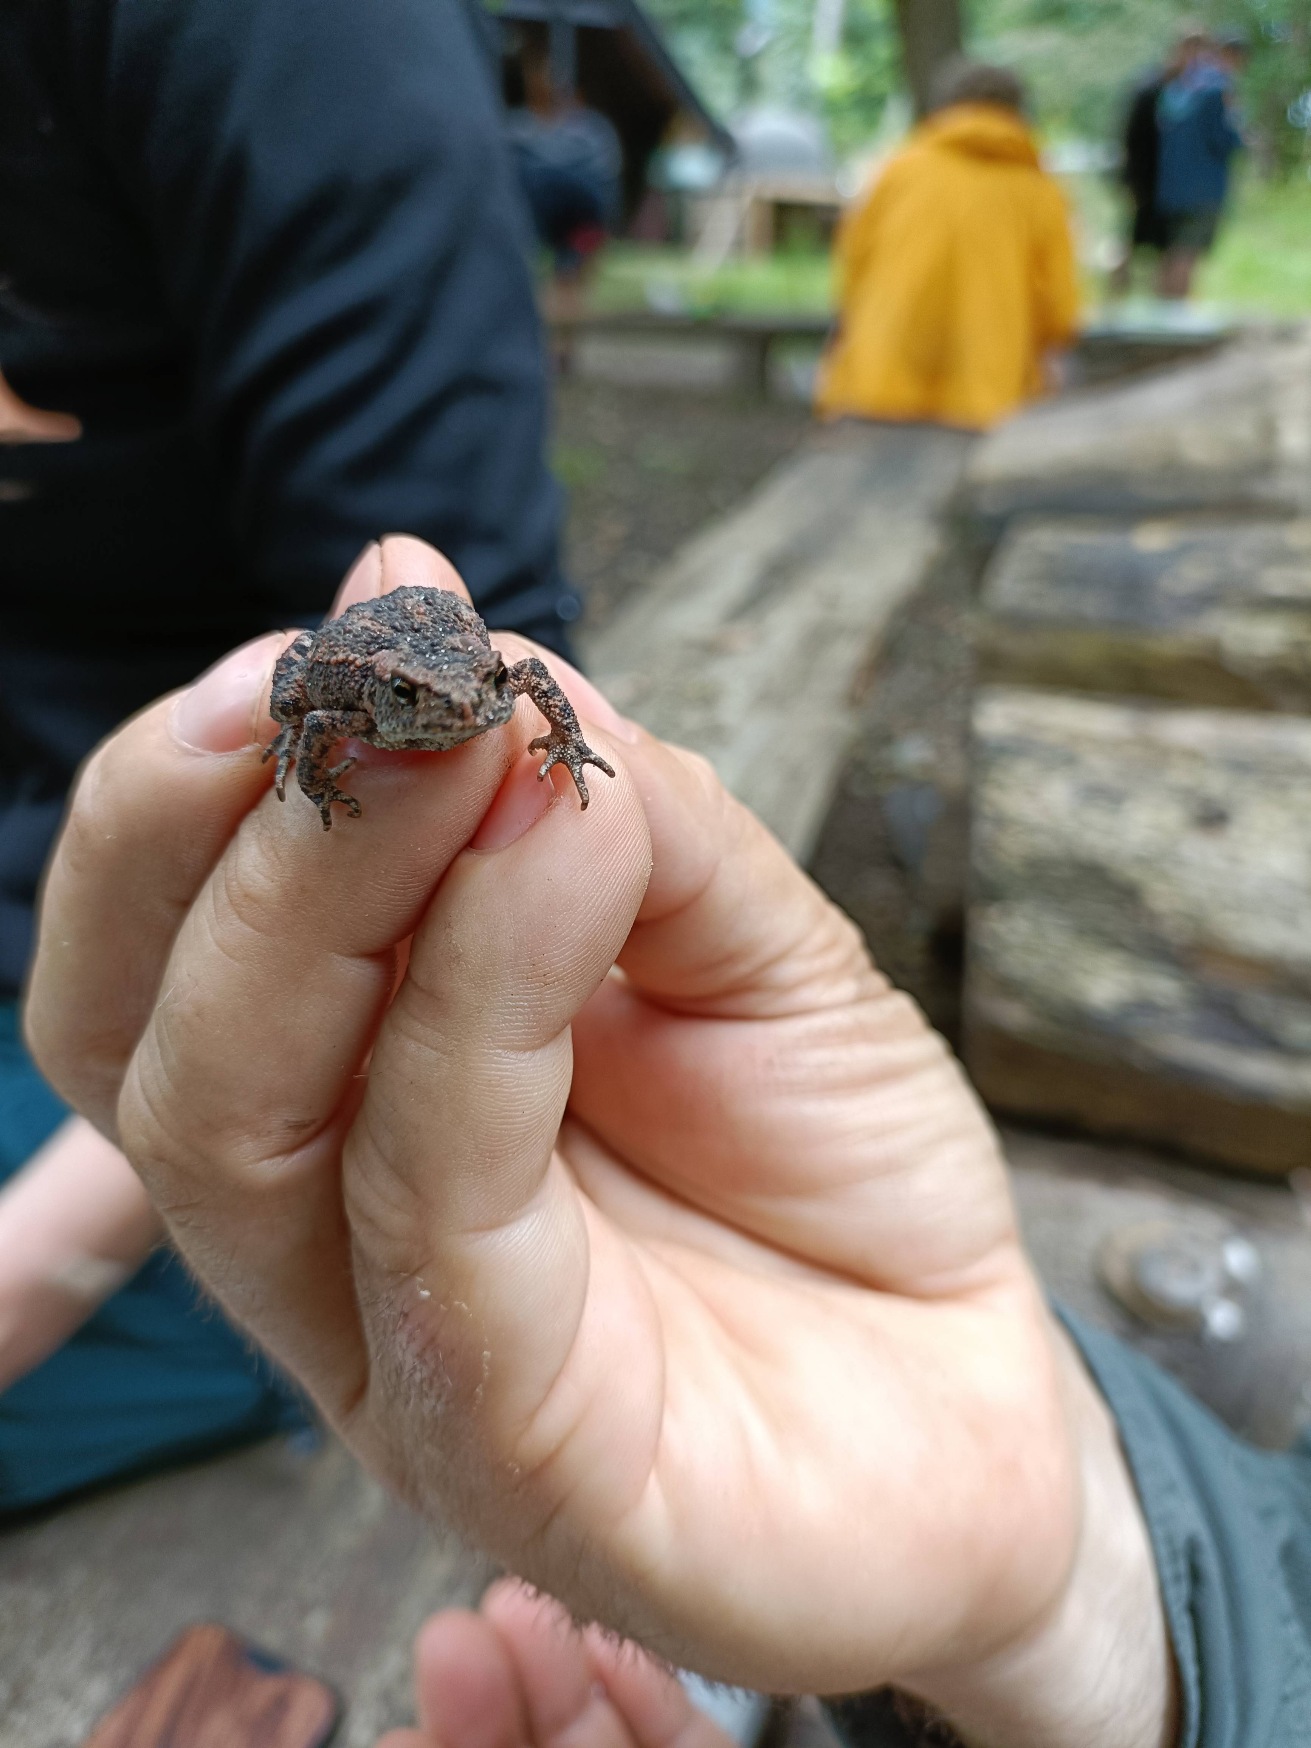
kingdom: Animalia
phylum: Chordata
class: Amphibia
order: Anura
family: Bufonidae
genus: Bufo
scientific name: Bufo bufo
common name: Skrubtudse
